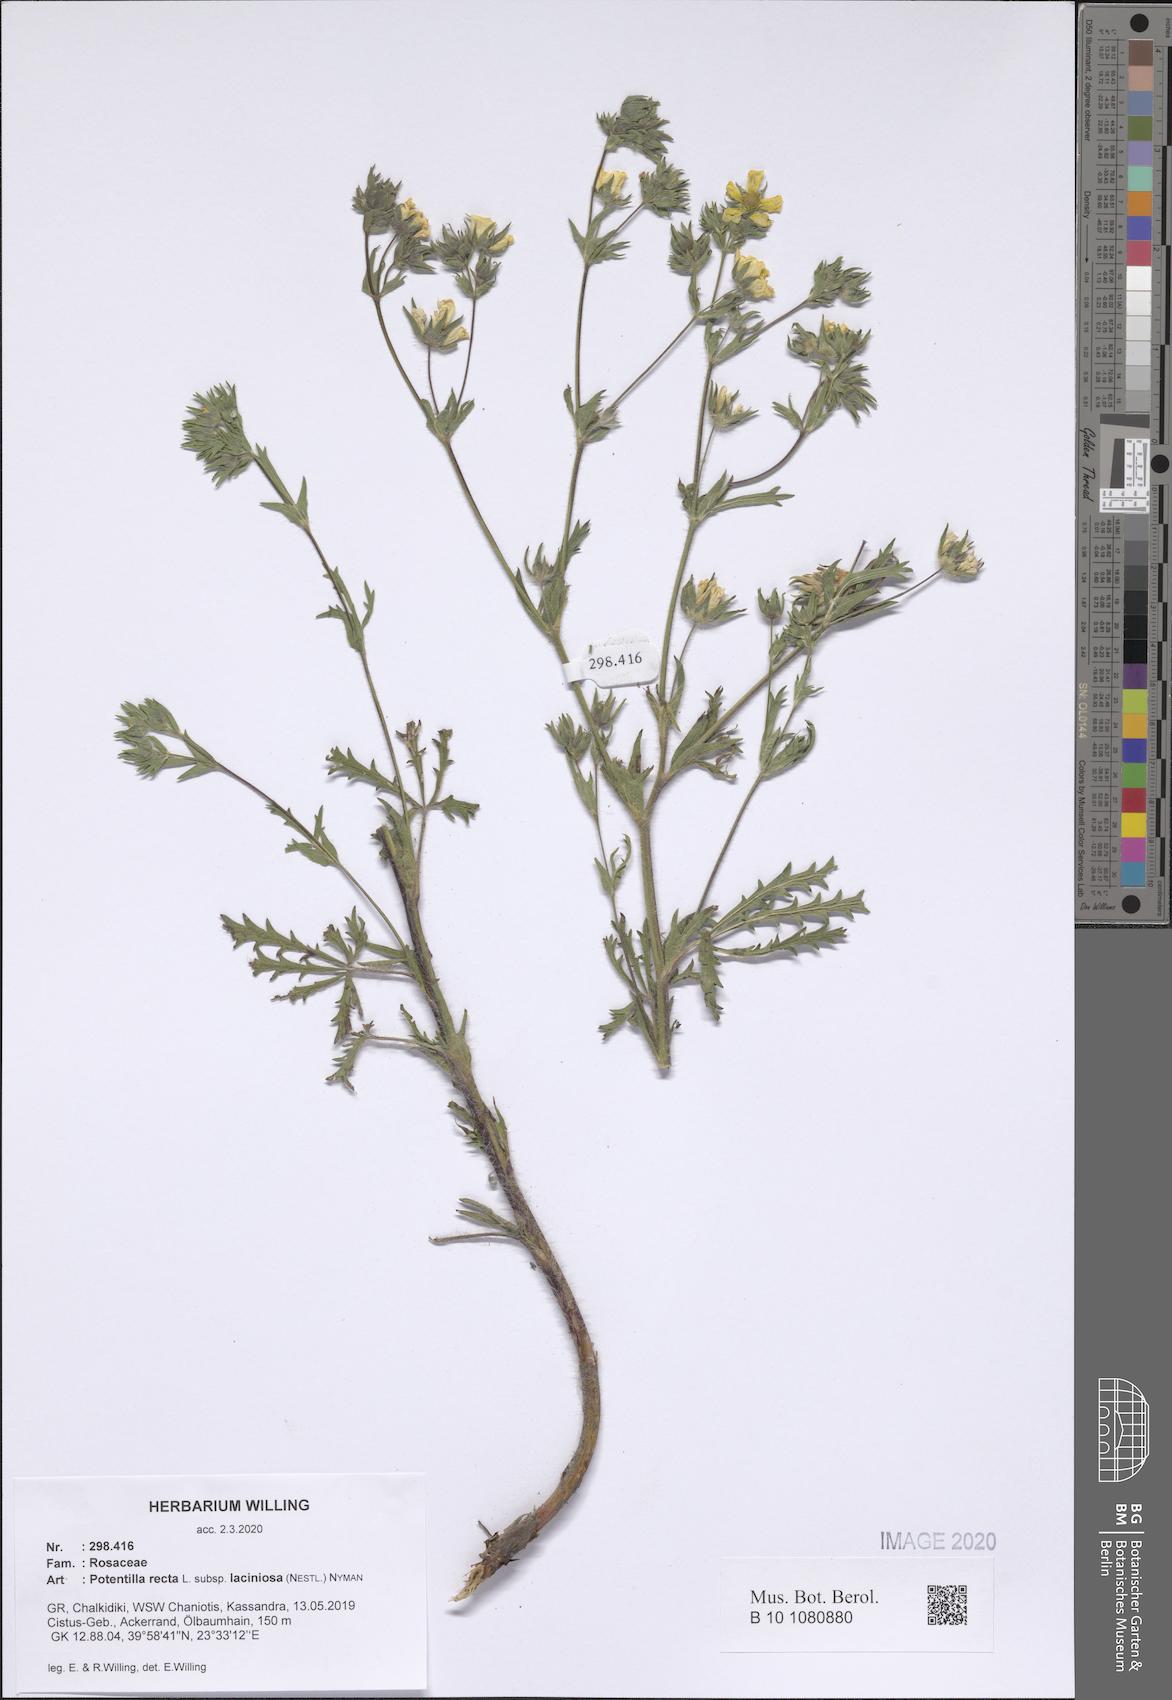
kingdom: Plantae
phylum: Tracheophyta
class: Magnoliopsida
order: Rosales
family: Rosaceae
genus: Potentilla
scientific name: Potentilla recta
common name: Sulphur cinquefoil
